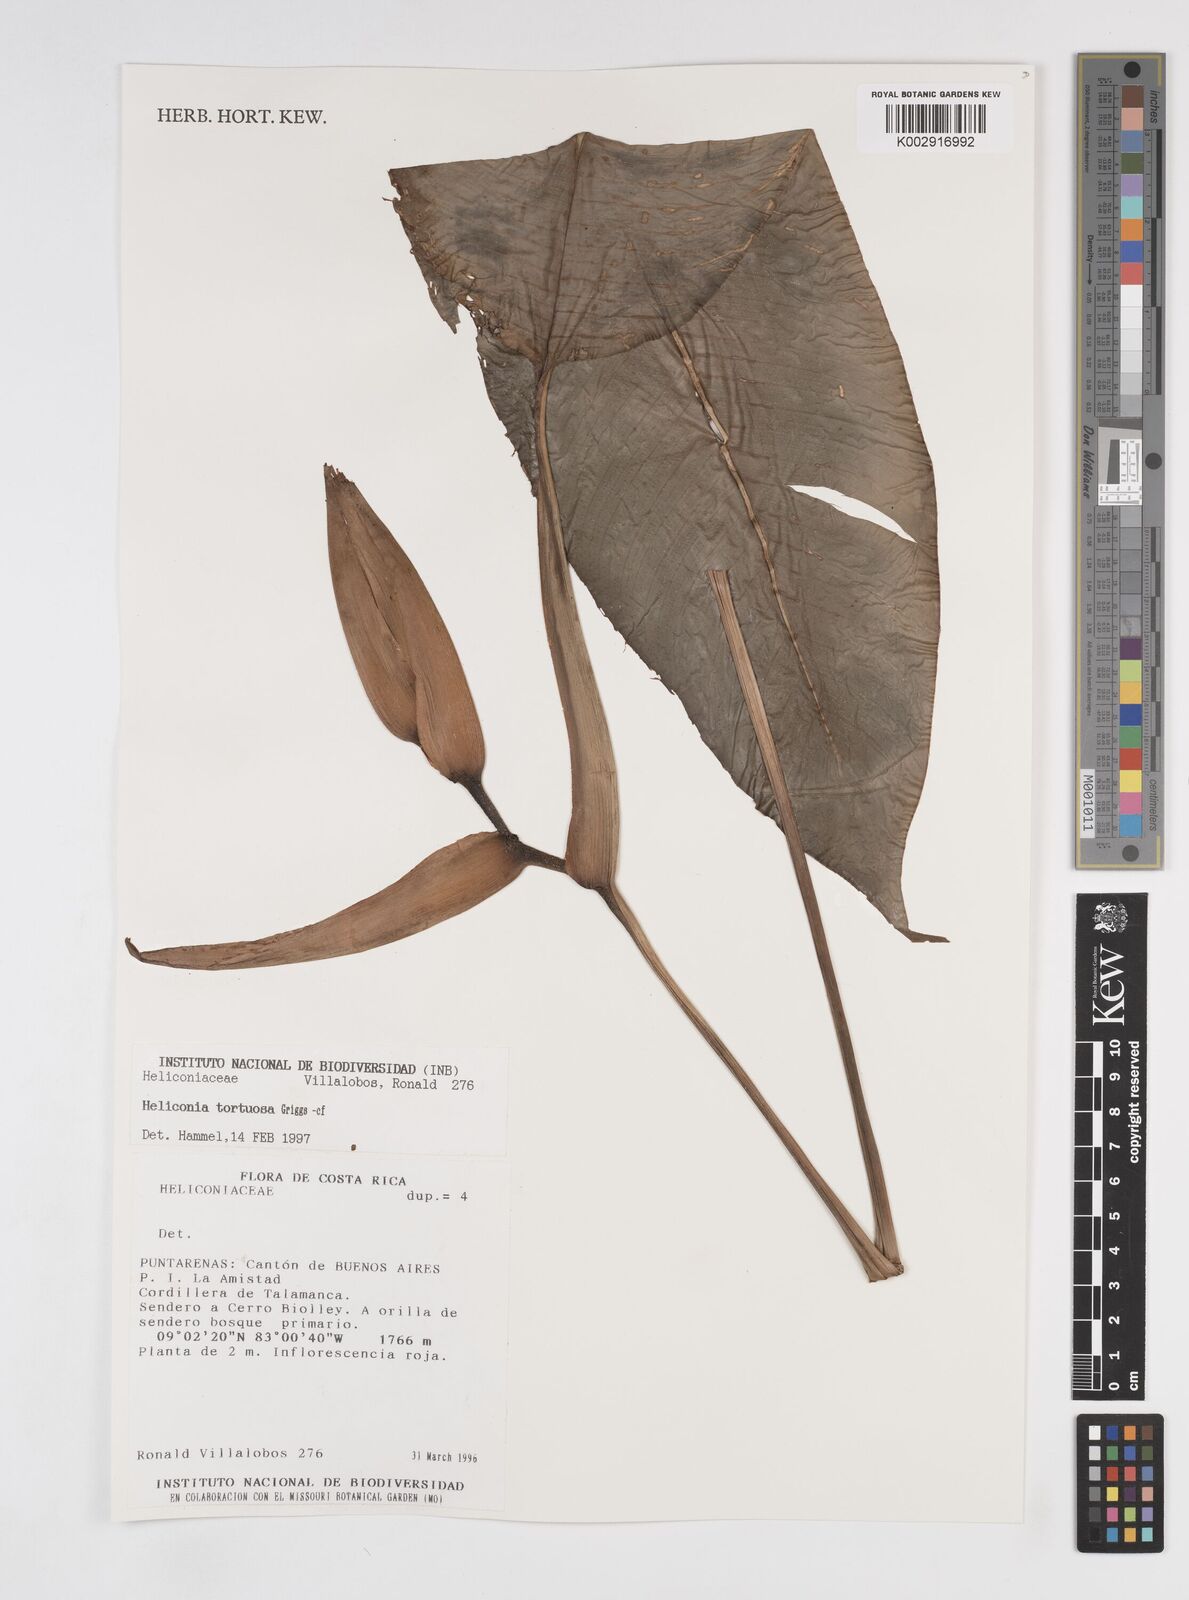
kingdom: Plantae
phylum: Tracheophyta
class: Liliopsida
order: Zingiberales
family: Heliconiaceae
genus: Heliconia
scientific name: Heliconia tortuosa
